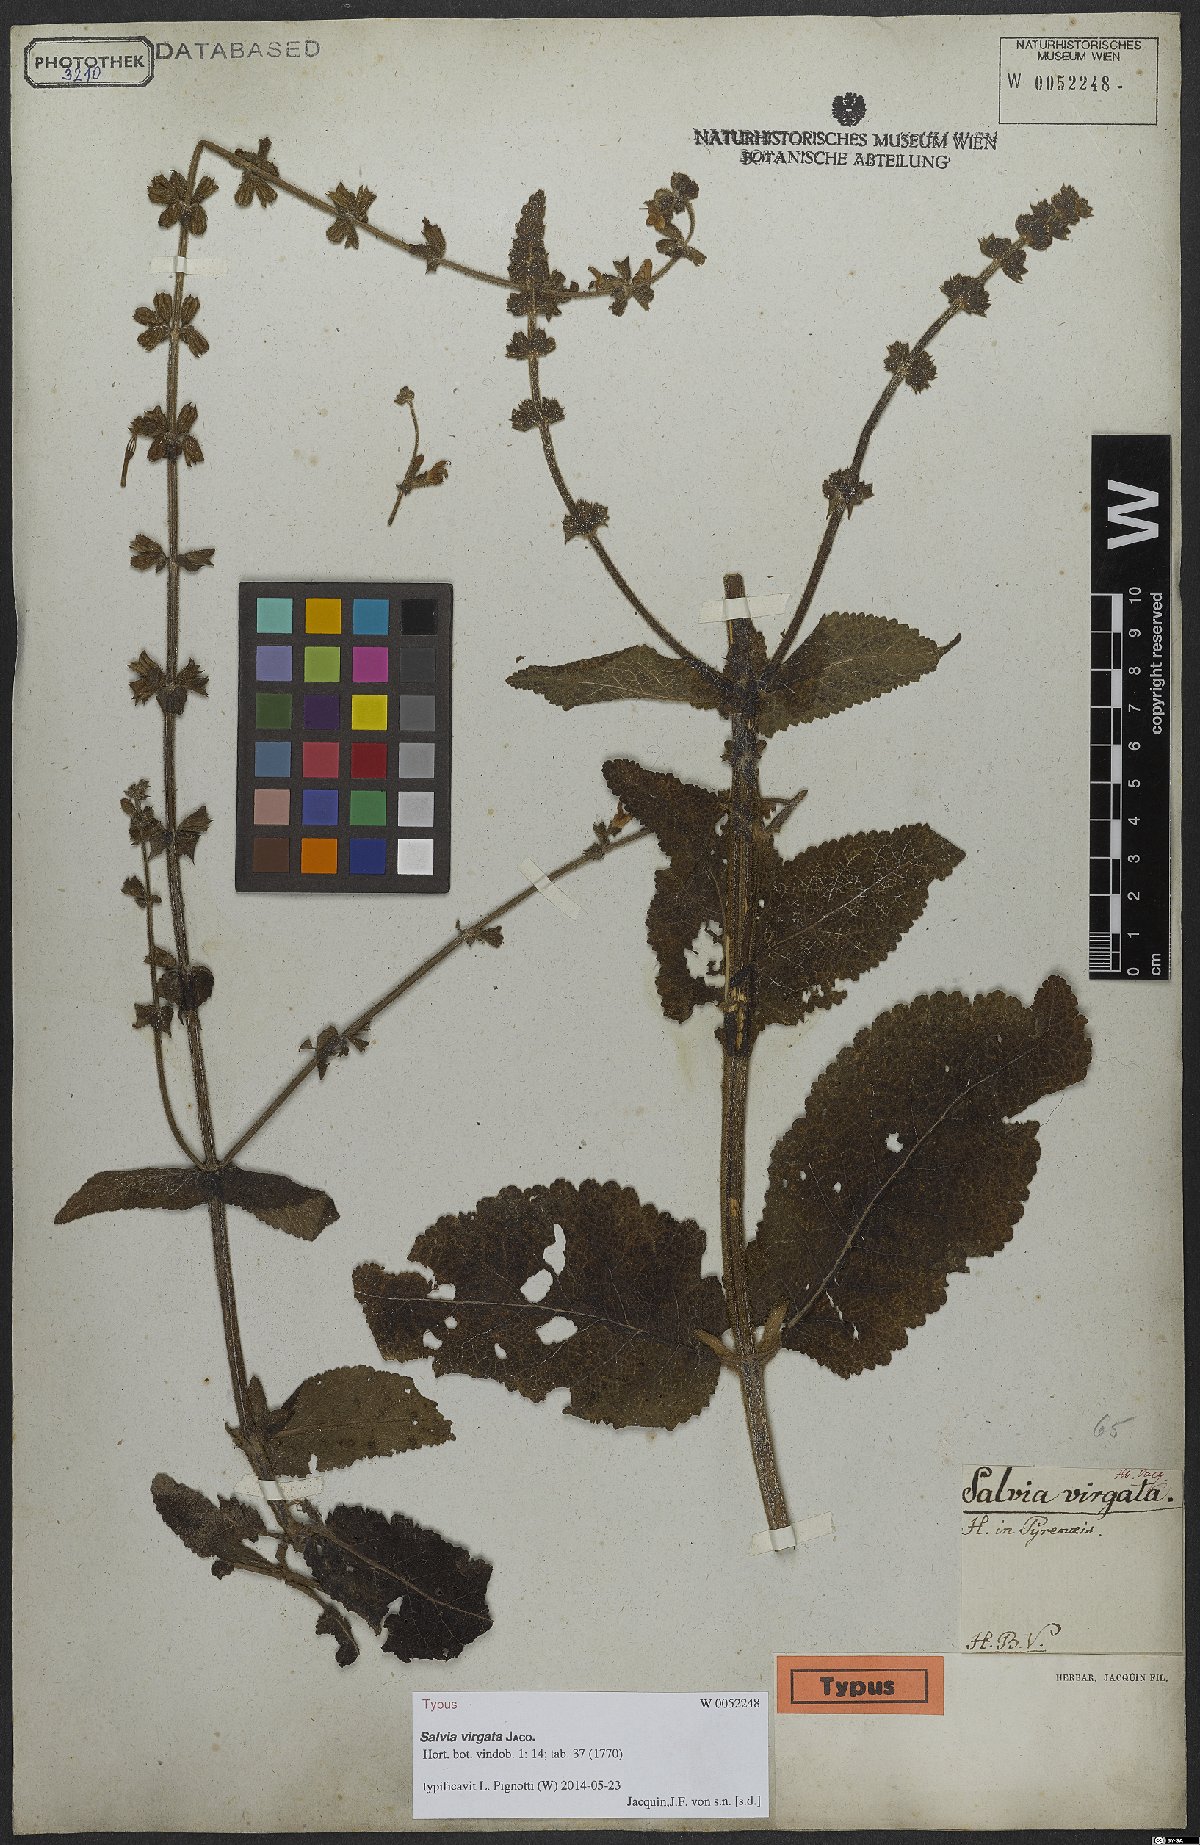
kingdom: Plantae
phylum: Tracheophyta
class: Magnoliopsida
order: Lamiales
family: Lamiaceae
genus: Salvia
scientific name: Salvia virgata
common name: Wand sage
